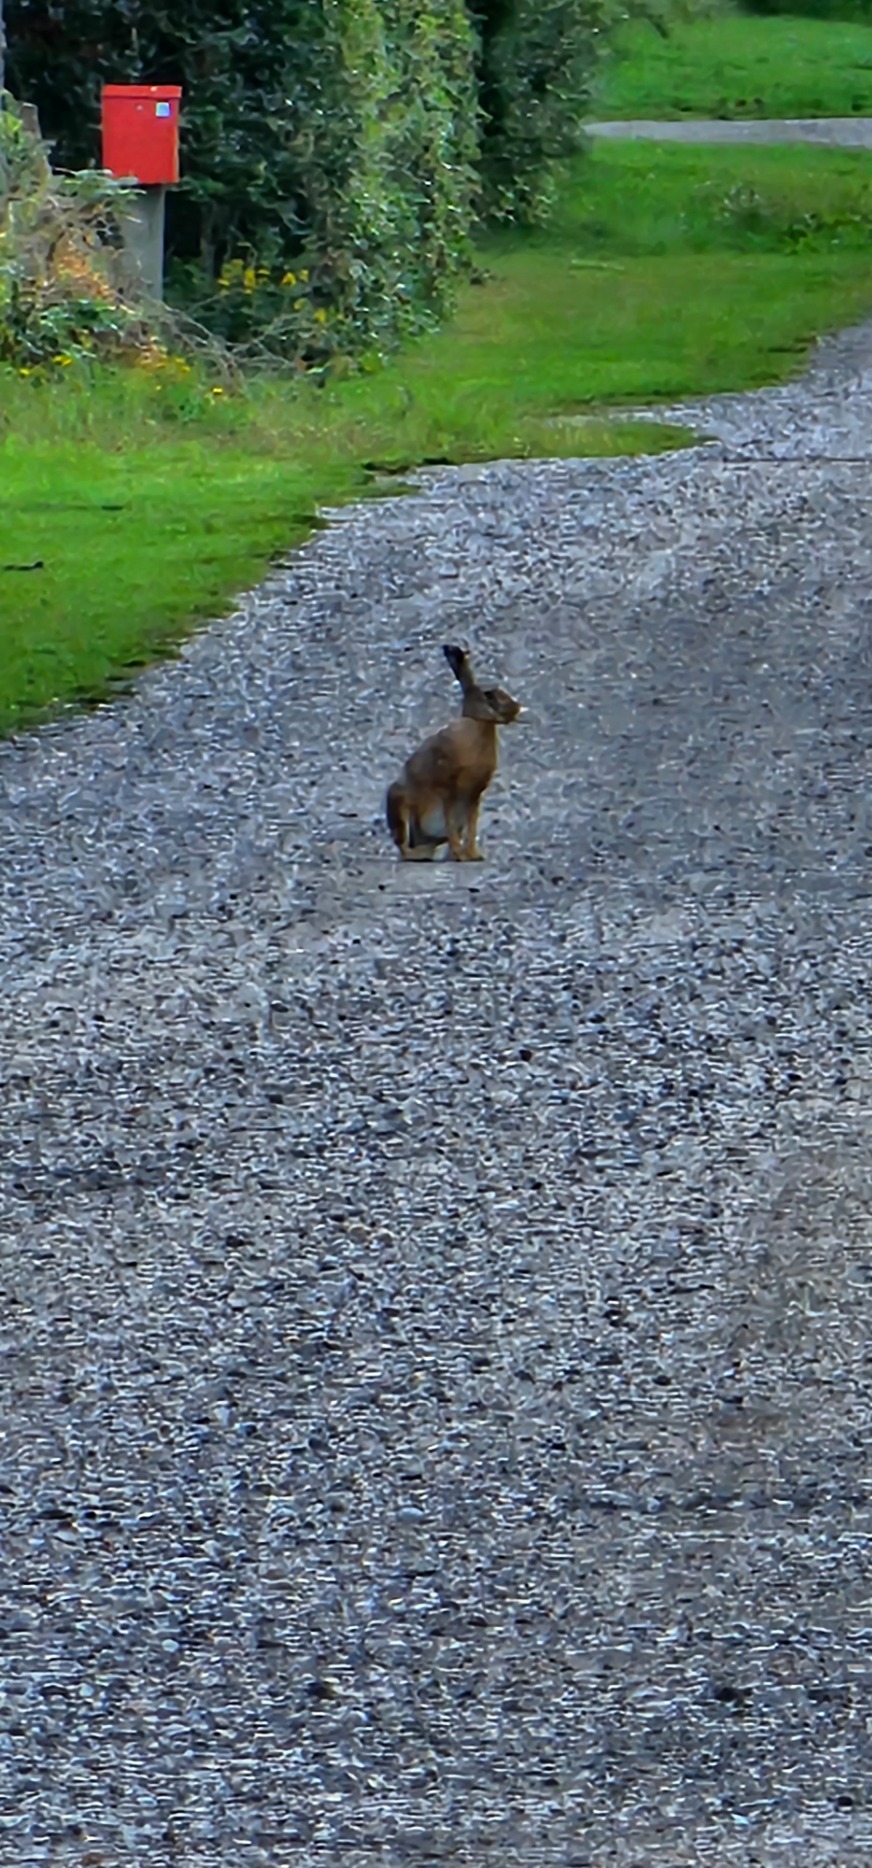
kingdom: Animalia
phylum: Chordata
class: Mammalia
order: Lagomorpha
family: Leporidae
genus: Lepus
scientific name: Lepus europaeus
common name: Hare
